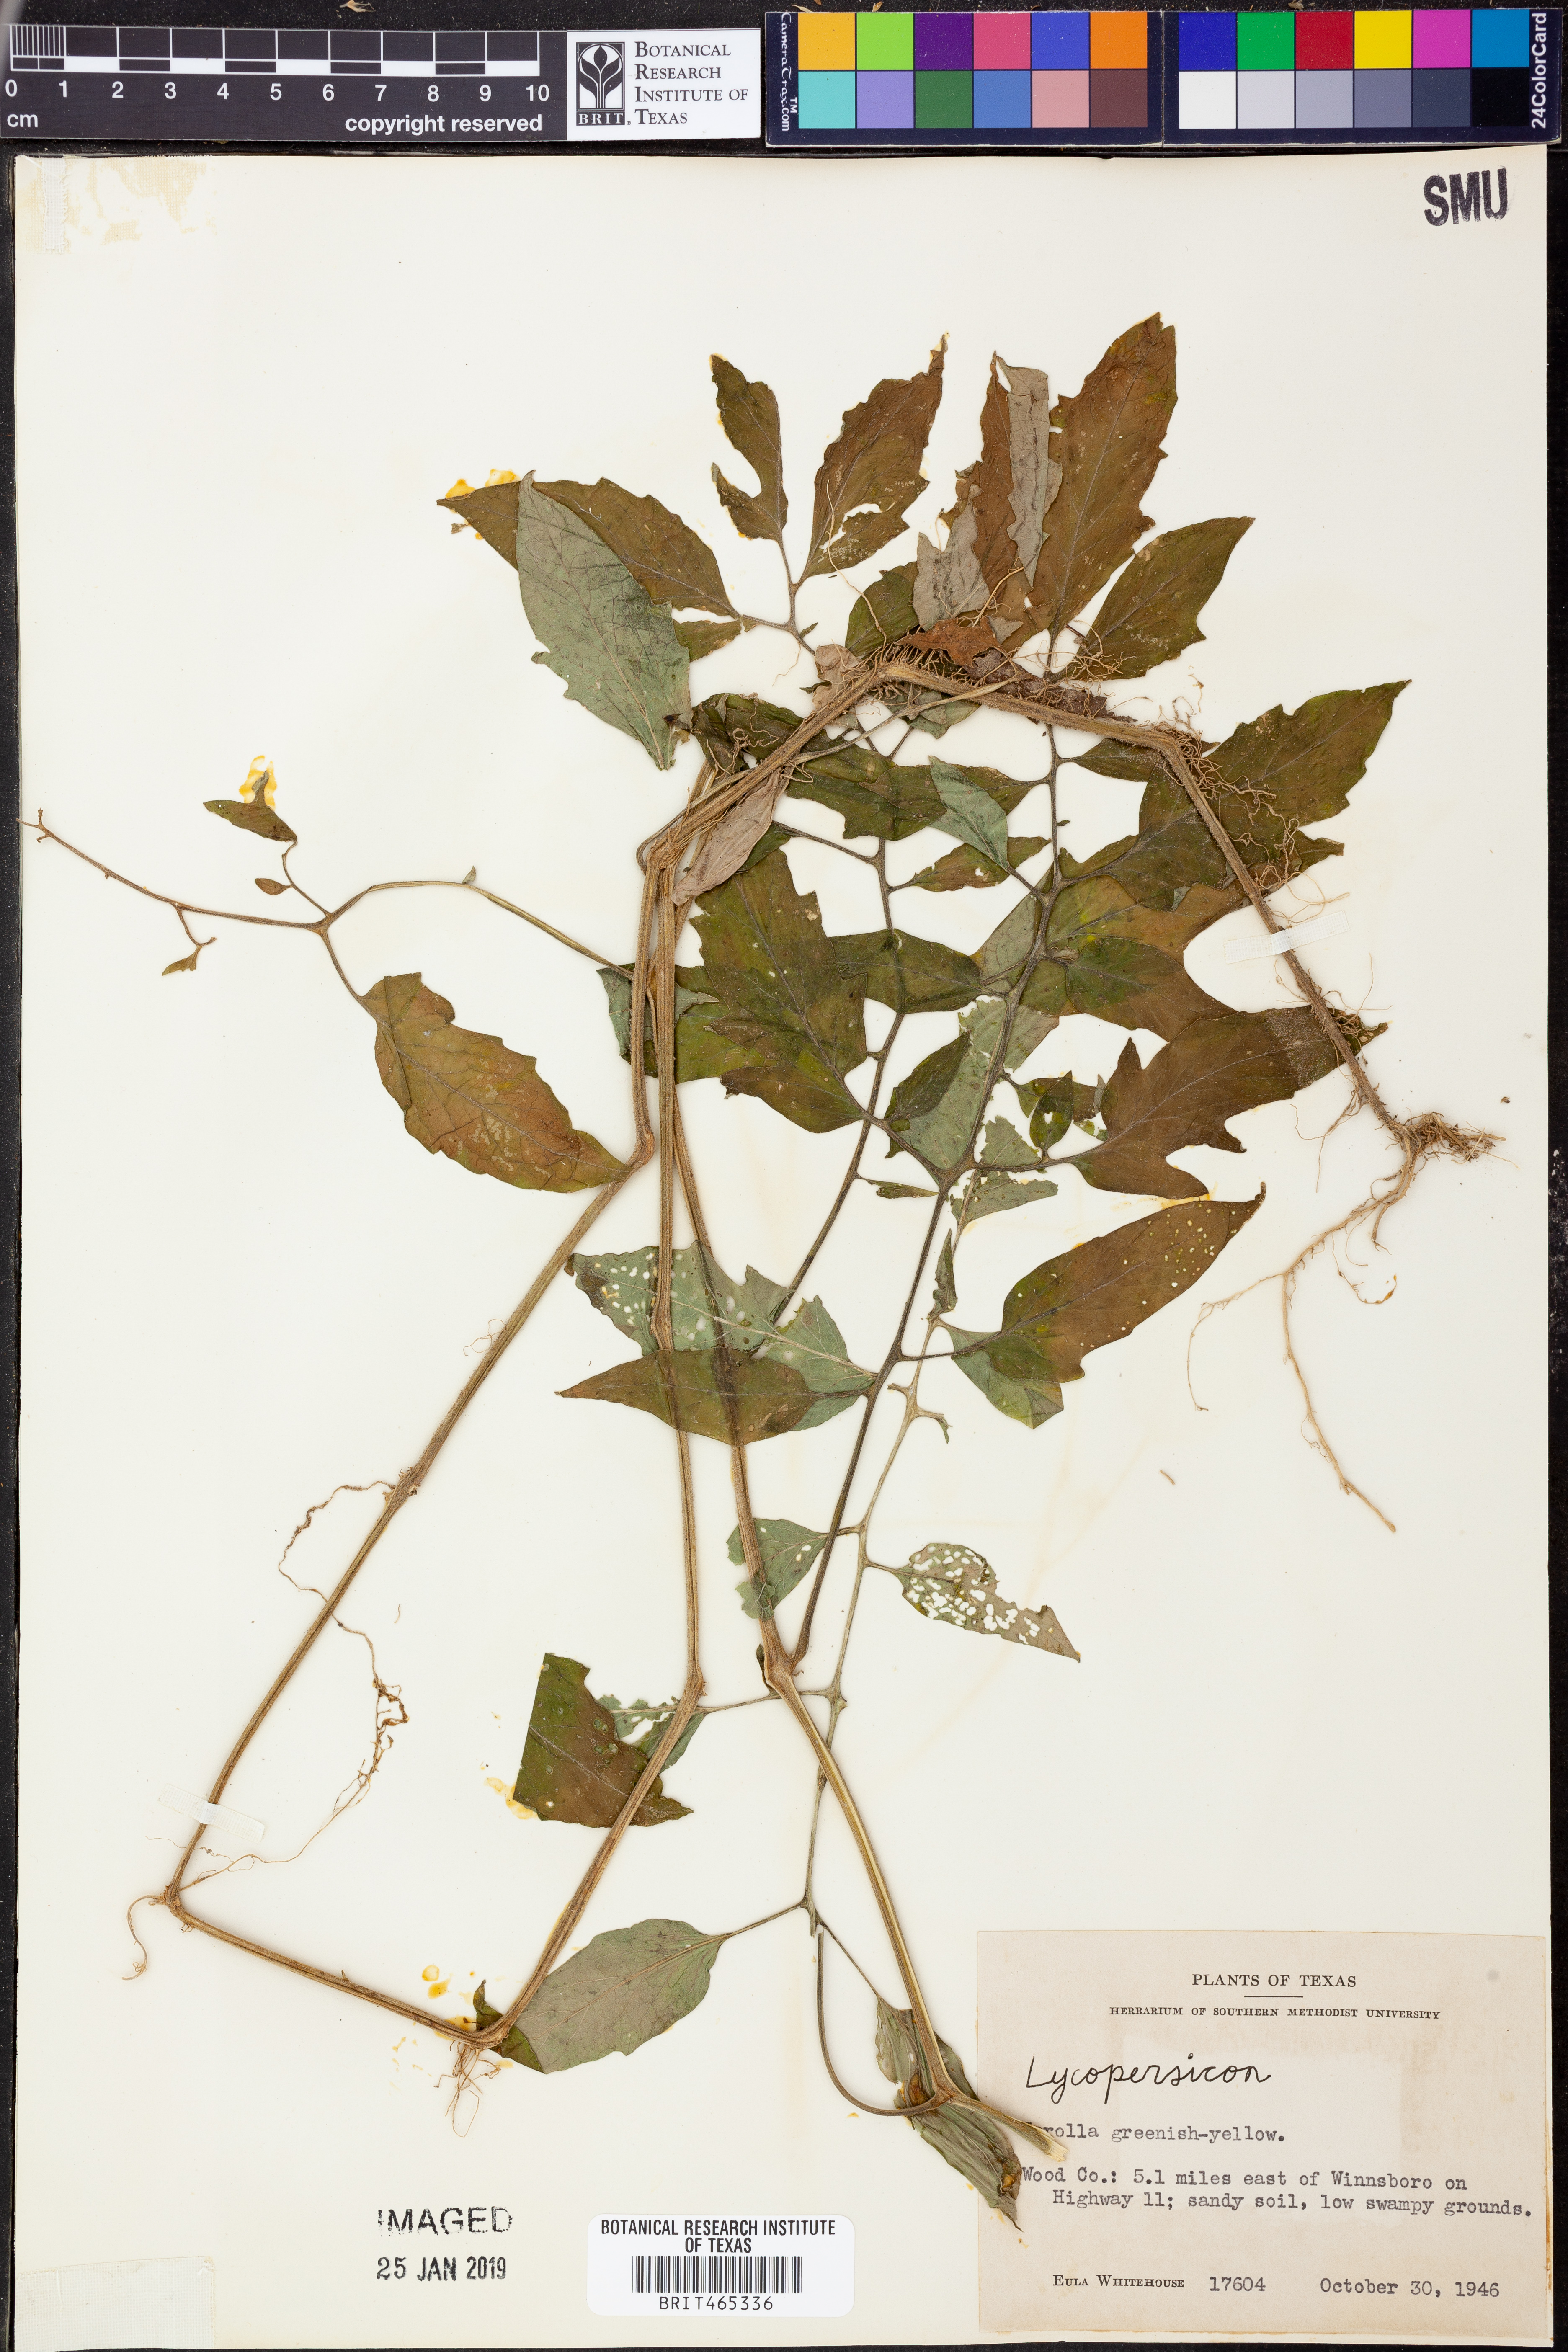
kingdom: Plantae
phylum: Tracheophyta
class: Magnoliopsida
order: Solanales
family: Solanaceae
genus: Lycopersicon
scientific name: Lycopersicon
